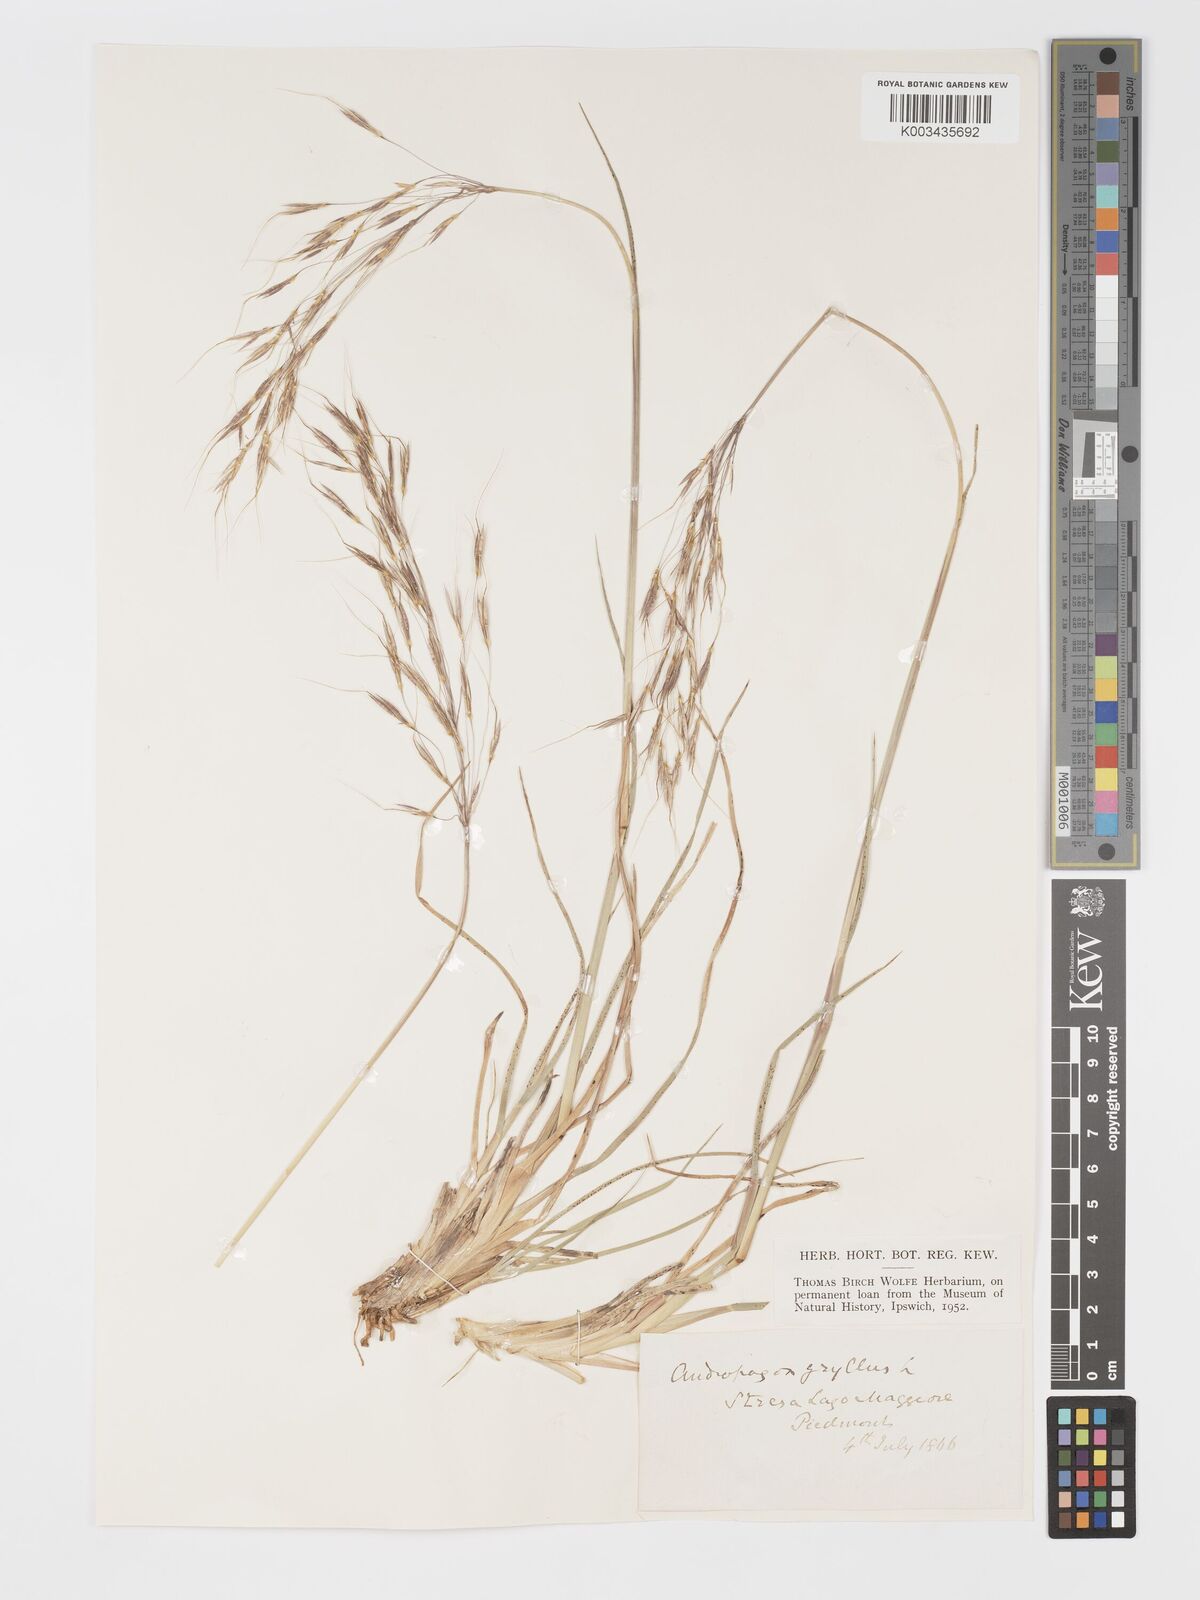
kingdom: Plantae
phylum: Tracheophyta
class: Liliopsida
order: Poales
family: Poaceae
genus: Chrysopogon
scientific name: Chrysopogon gryllus
